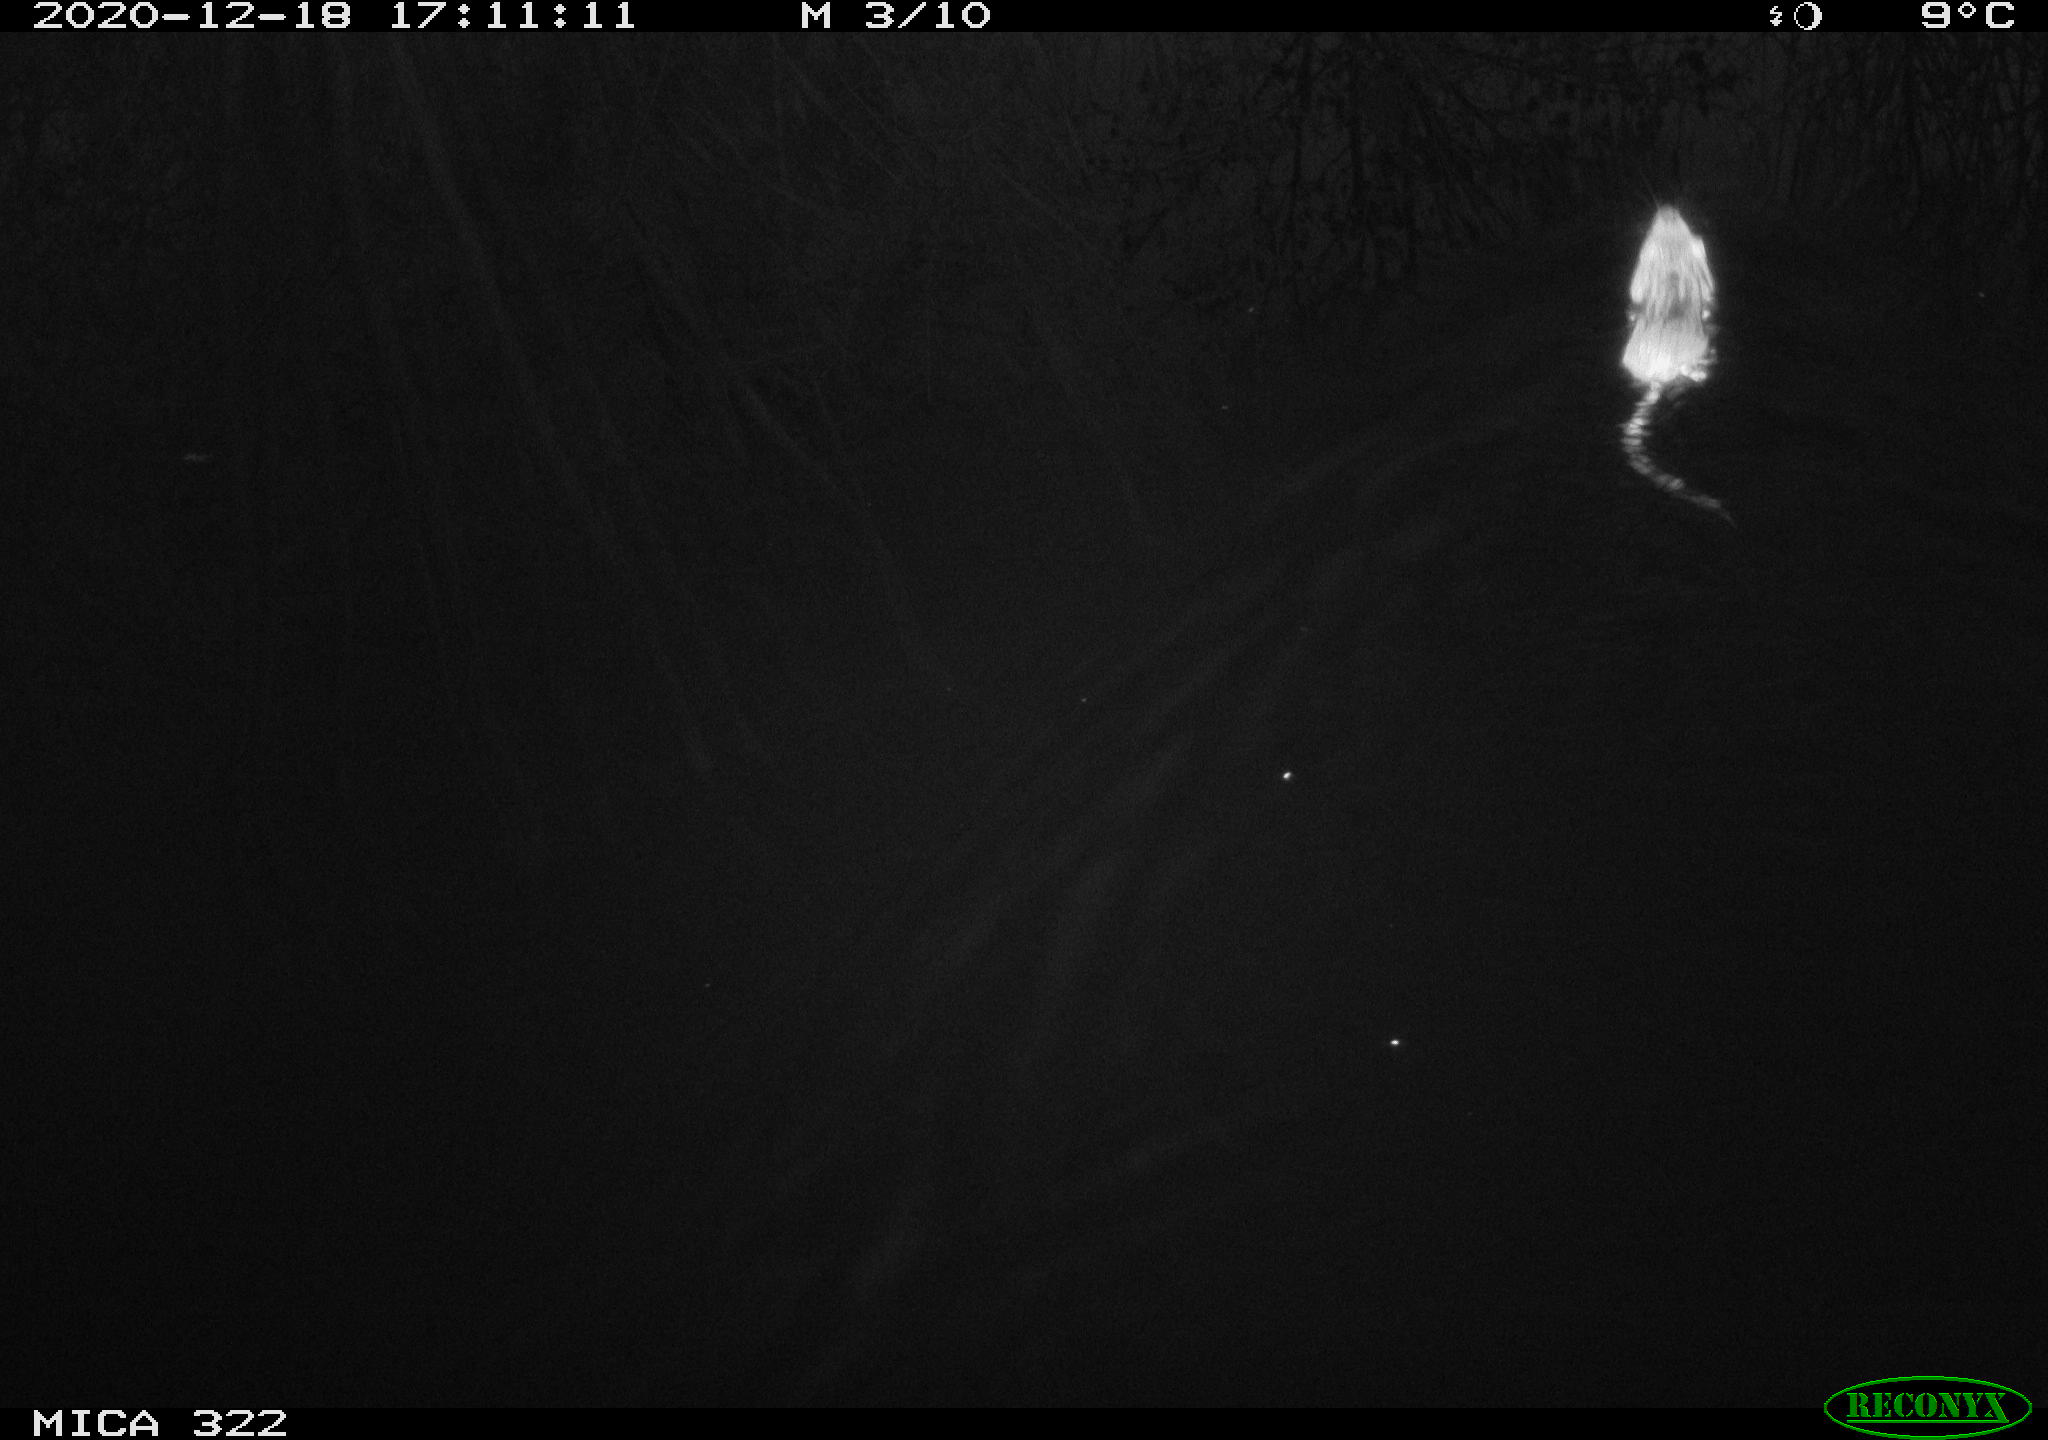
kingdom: Animalia
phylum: Chordata
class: Mammalia
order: Rodentia
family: Cricetidae
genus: Ondatra
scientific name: Ondatra zibethicus
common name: Muskrat
